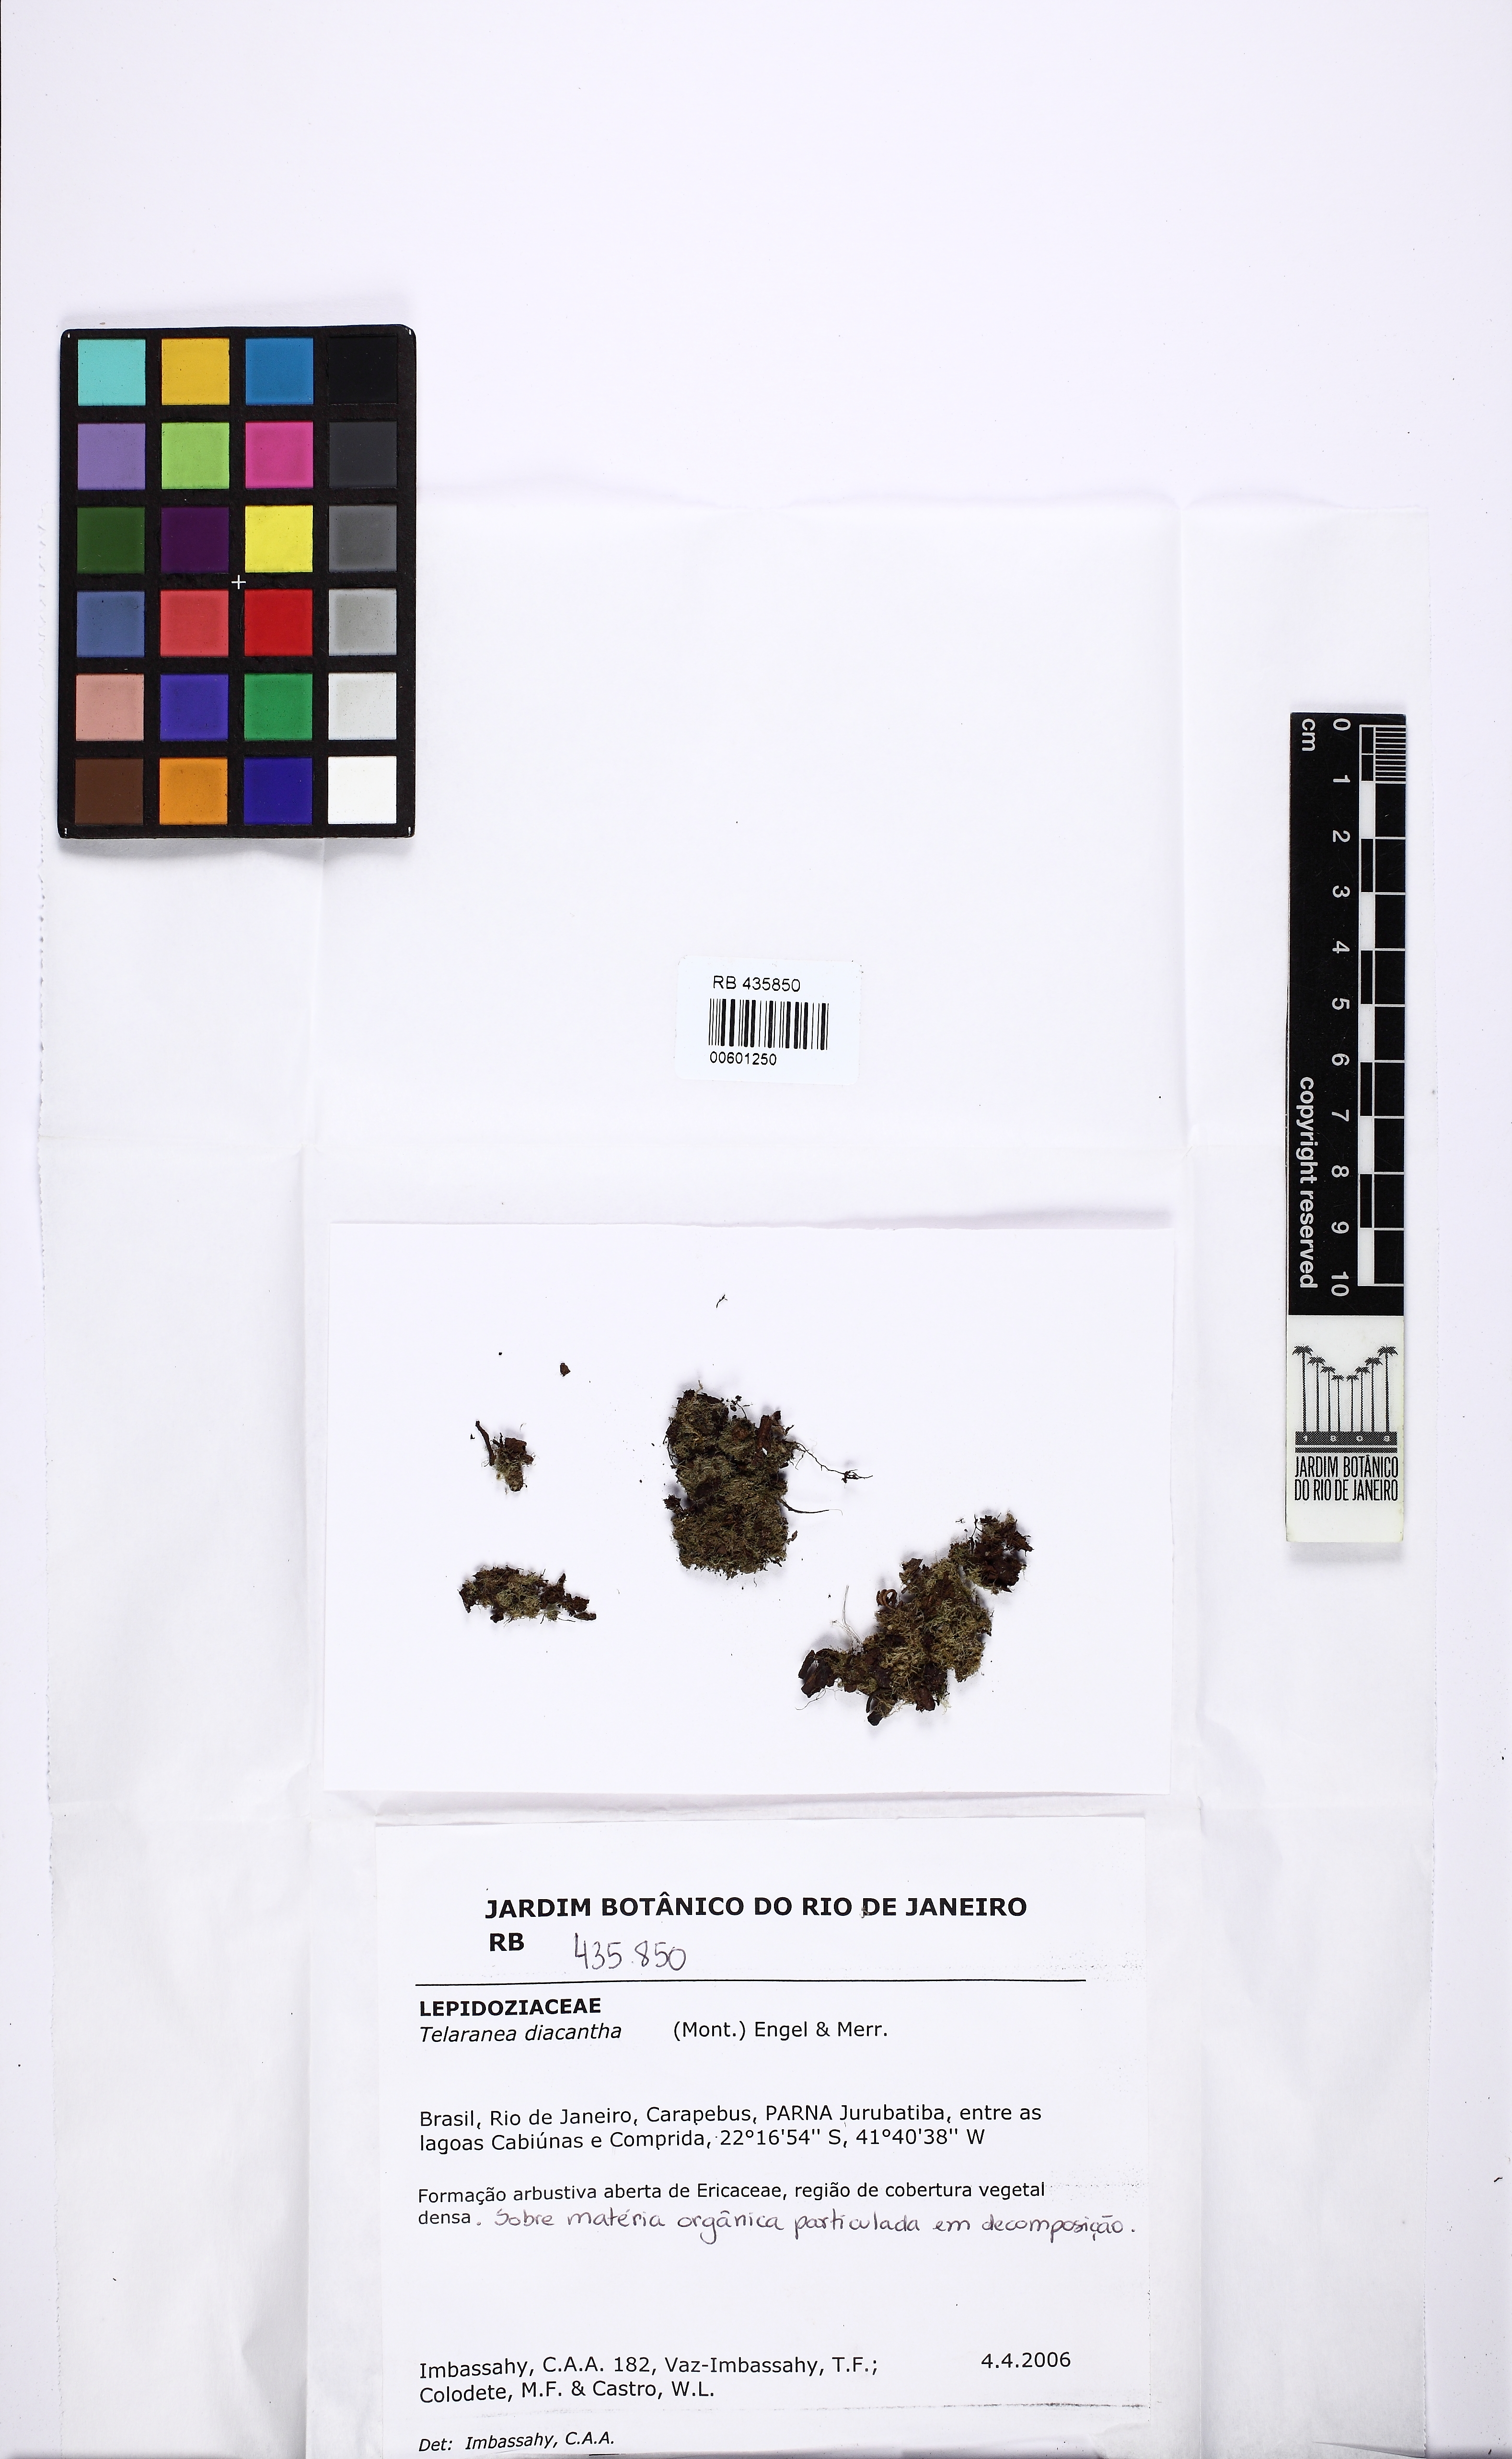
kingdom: Plantae
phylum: Marchantiophyta
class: Jungermanniopsida
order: Jungermanniales
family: Lepidoziaceae
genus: Telaranea
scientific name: Telaranea diacantha
